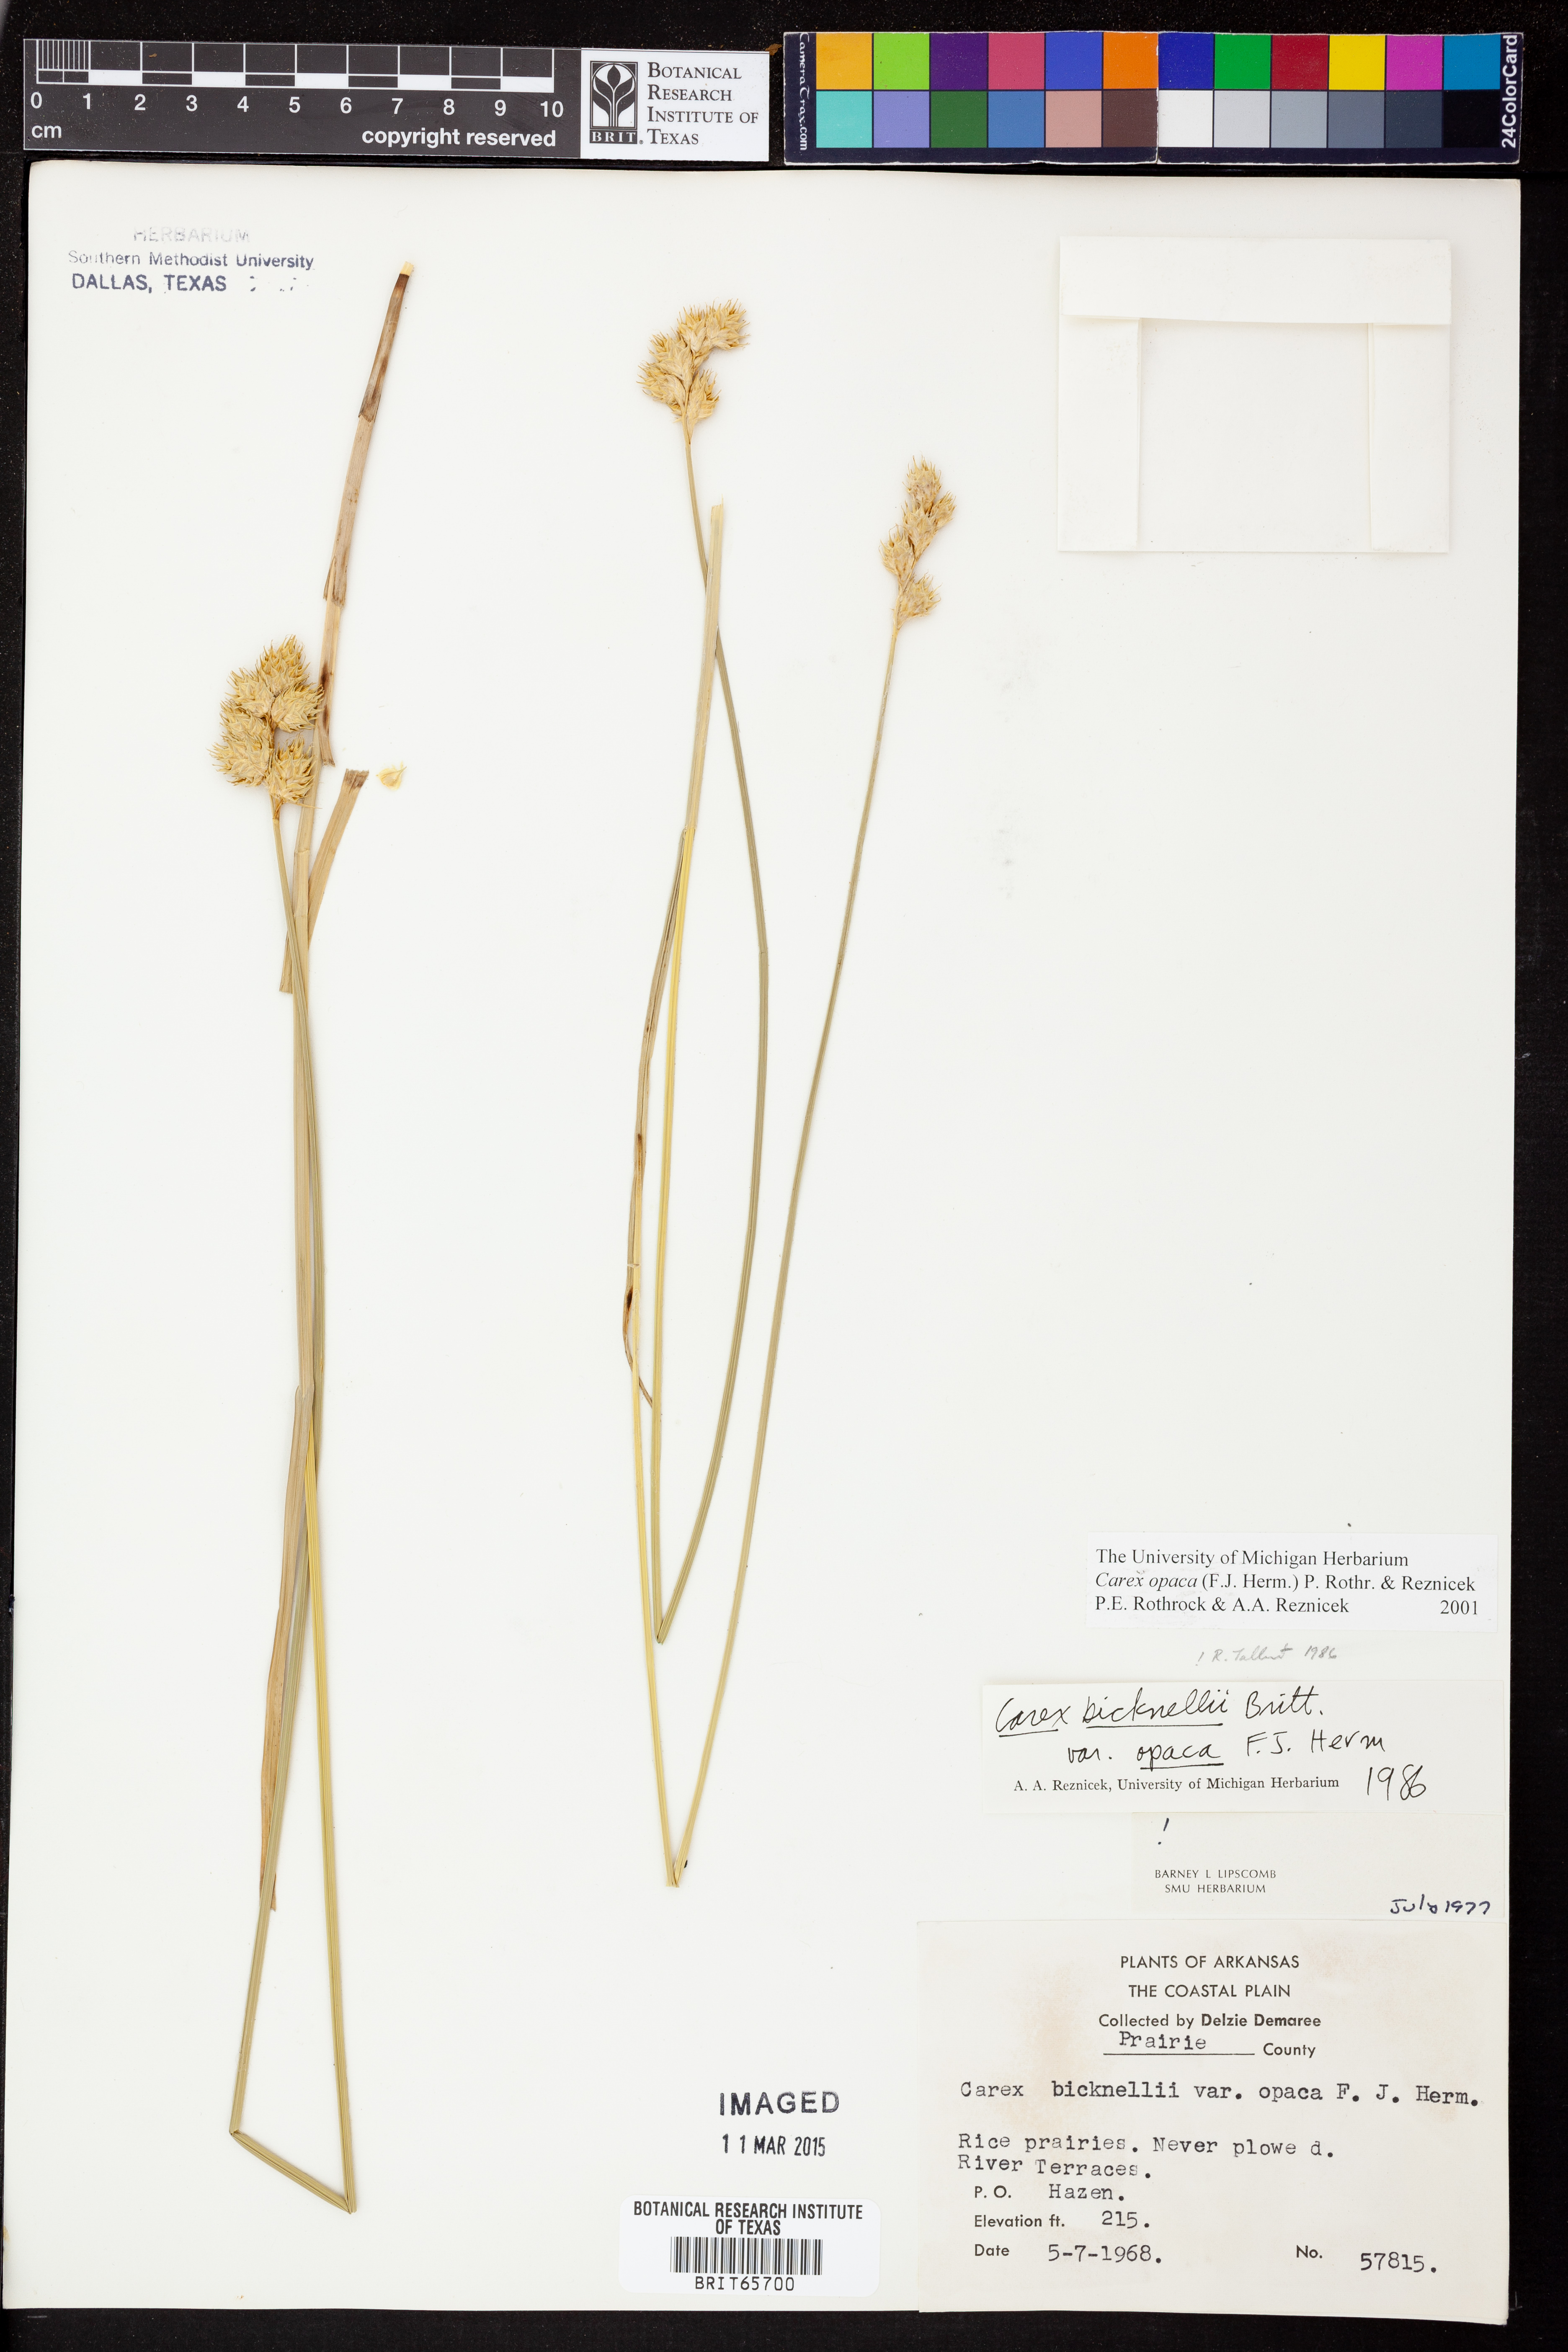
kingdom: Plantae
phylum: Tracheophyta
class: Liliopsida
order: Poales
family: Cyperaceae
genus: Carex
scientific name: Carex opaca
